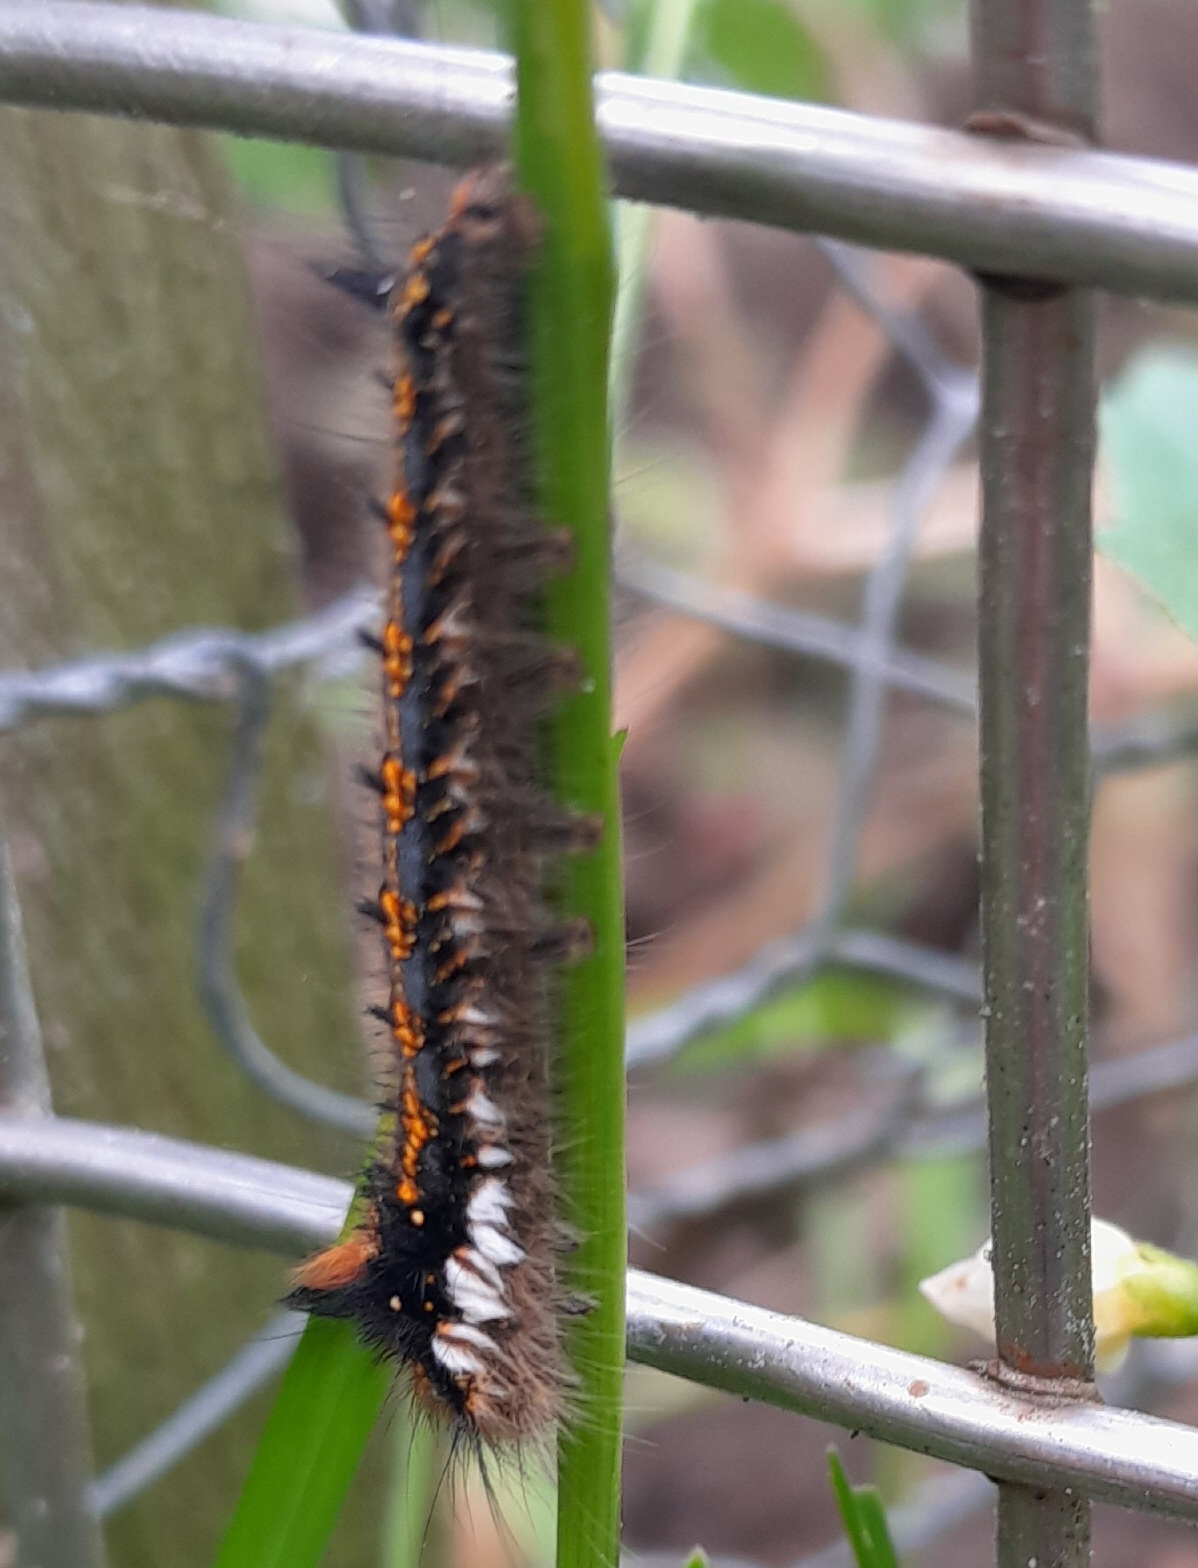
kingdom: Animalia
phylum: Arthropoda
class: Insecta
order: Lepidoptera
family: Lasiocampidae
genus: Euthrix
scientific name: Euthrix potatoria
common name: Græsspinder
